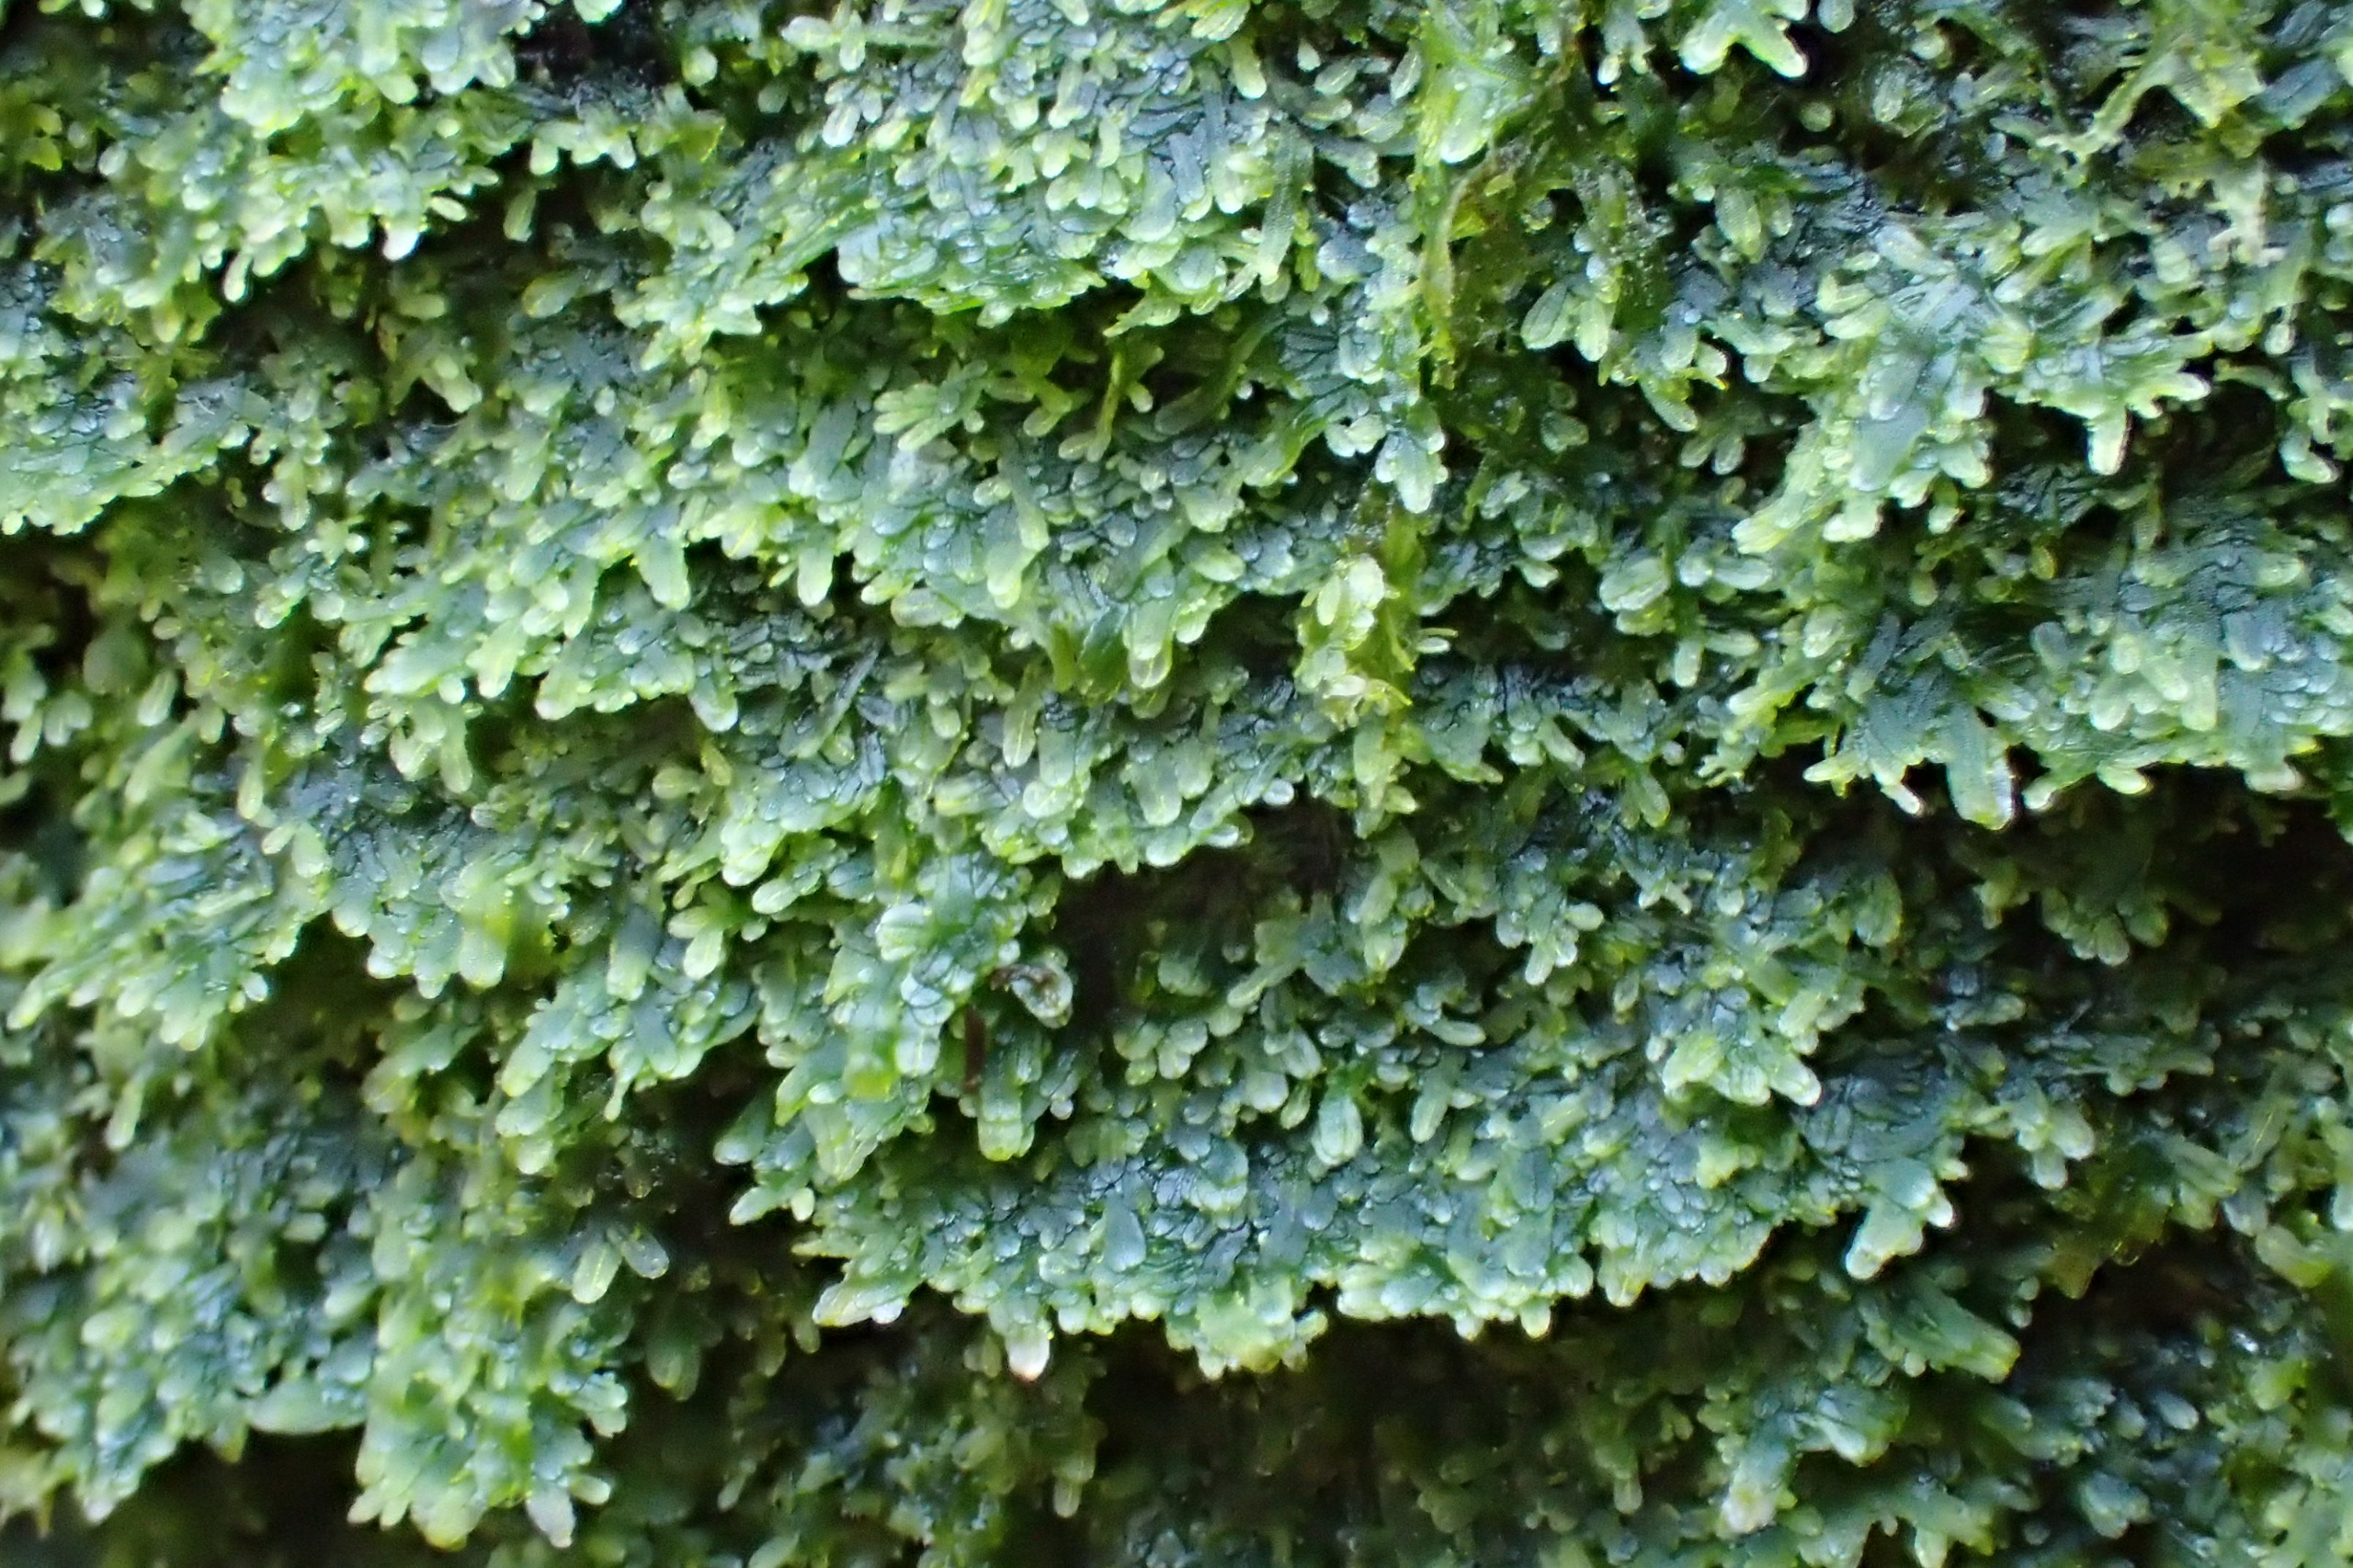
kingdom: Plantae
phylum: Marchantiophyta
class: Jungermanniopsida
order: Metzgeriales
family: Metzgeriaceae
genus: Metzgeria
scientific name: Metzgeria furcata
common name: Almindelig gaffelløv
